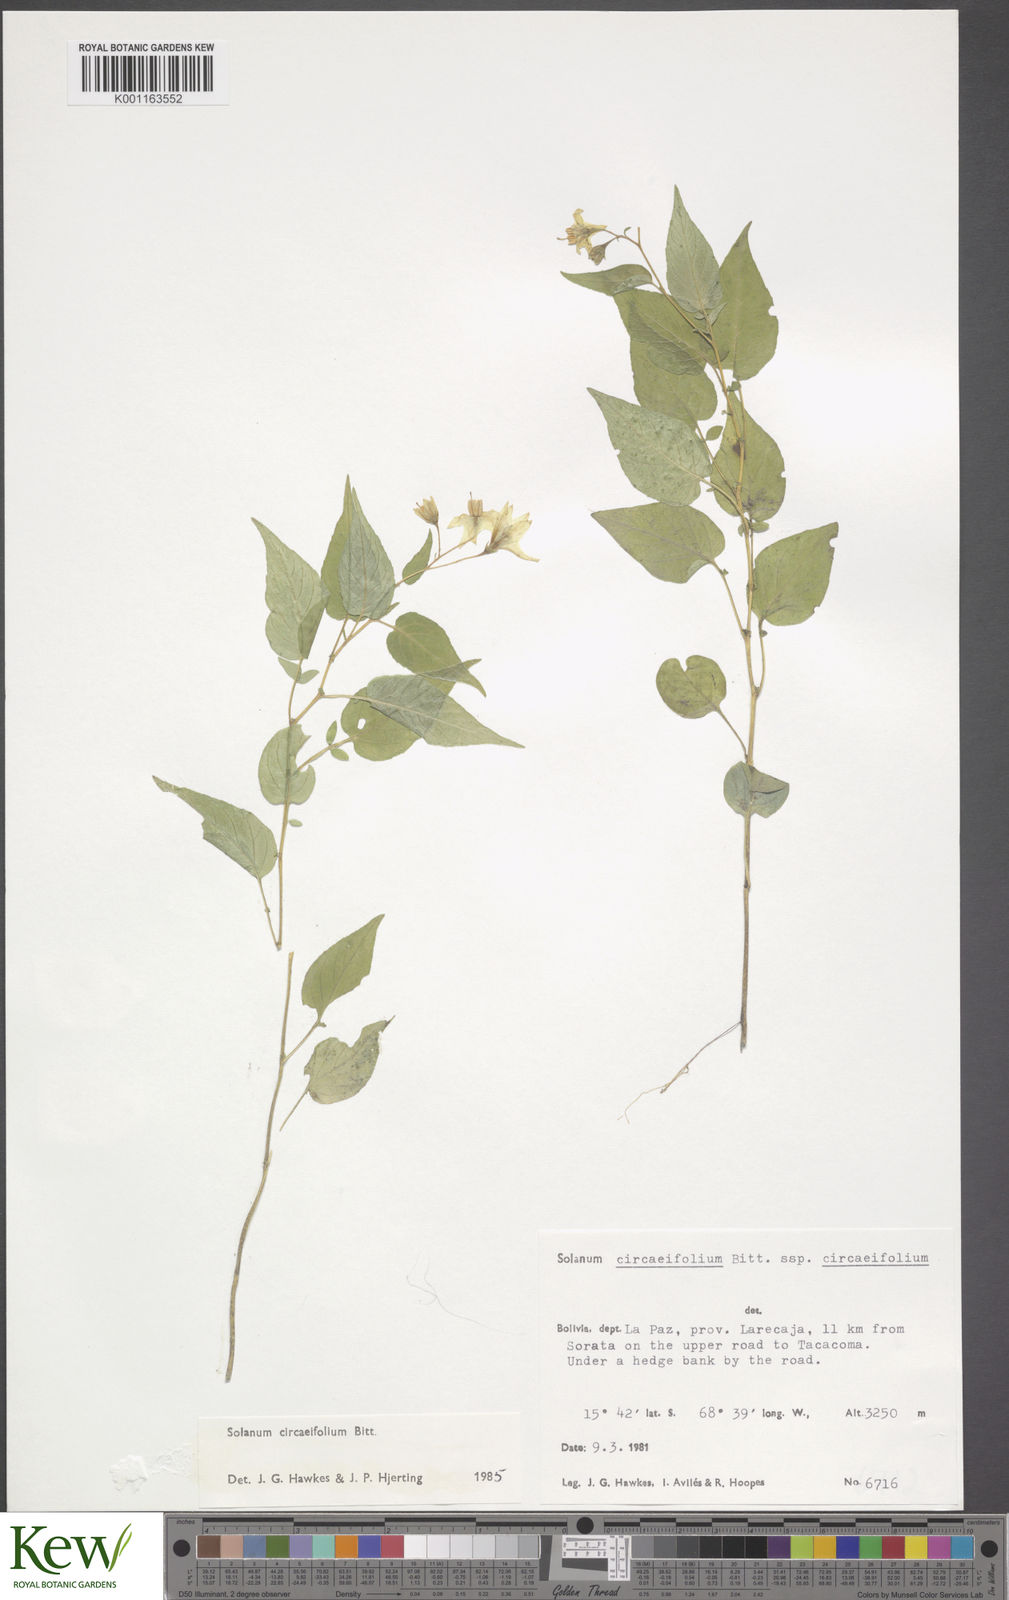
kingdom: Plantae
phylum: Tracheophyta
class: Magnoliopsida
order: Solanales
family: Solanaceae
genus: Solanum
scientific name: Solanum stipuloideum
